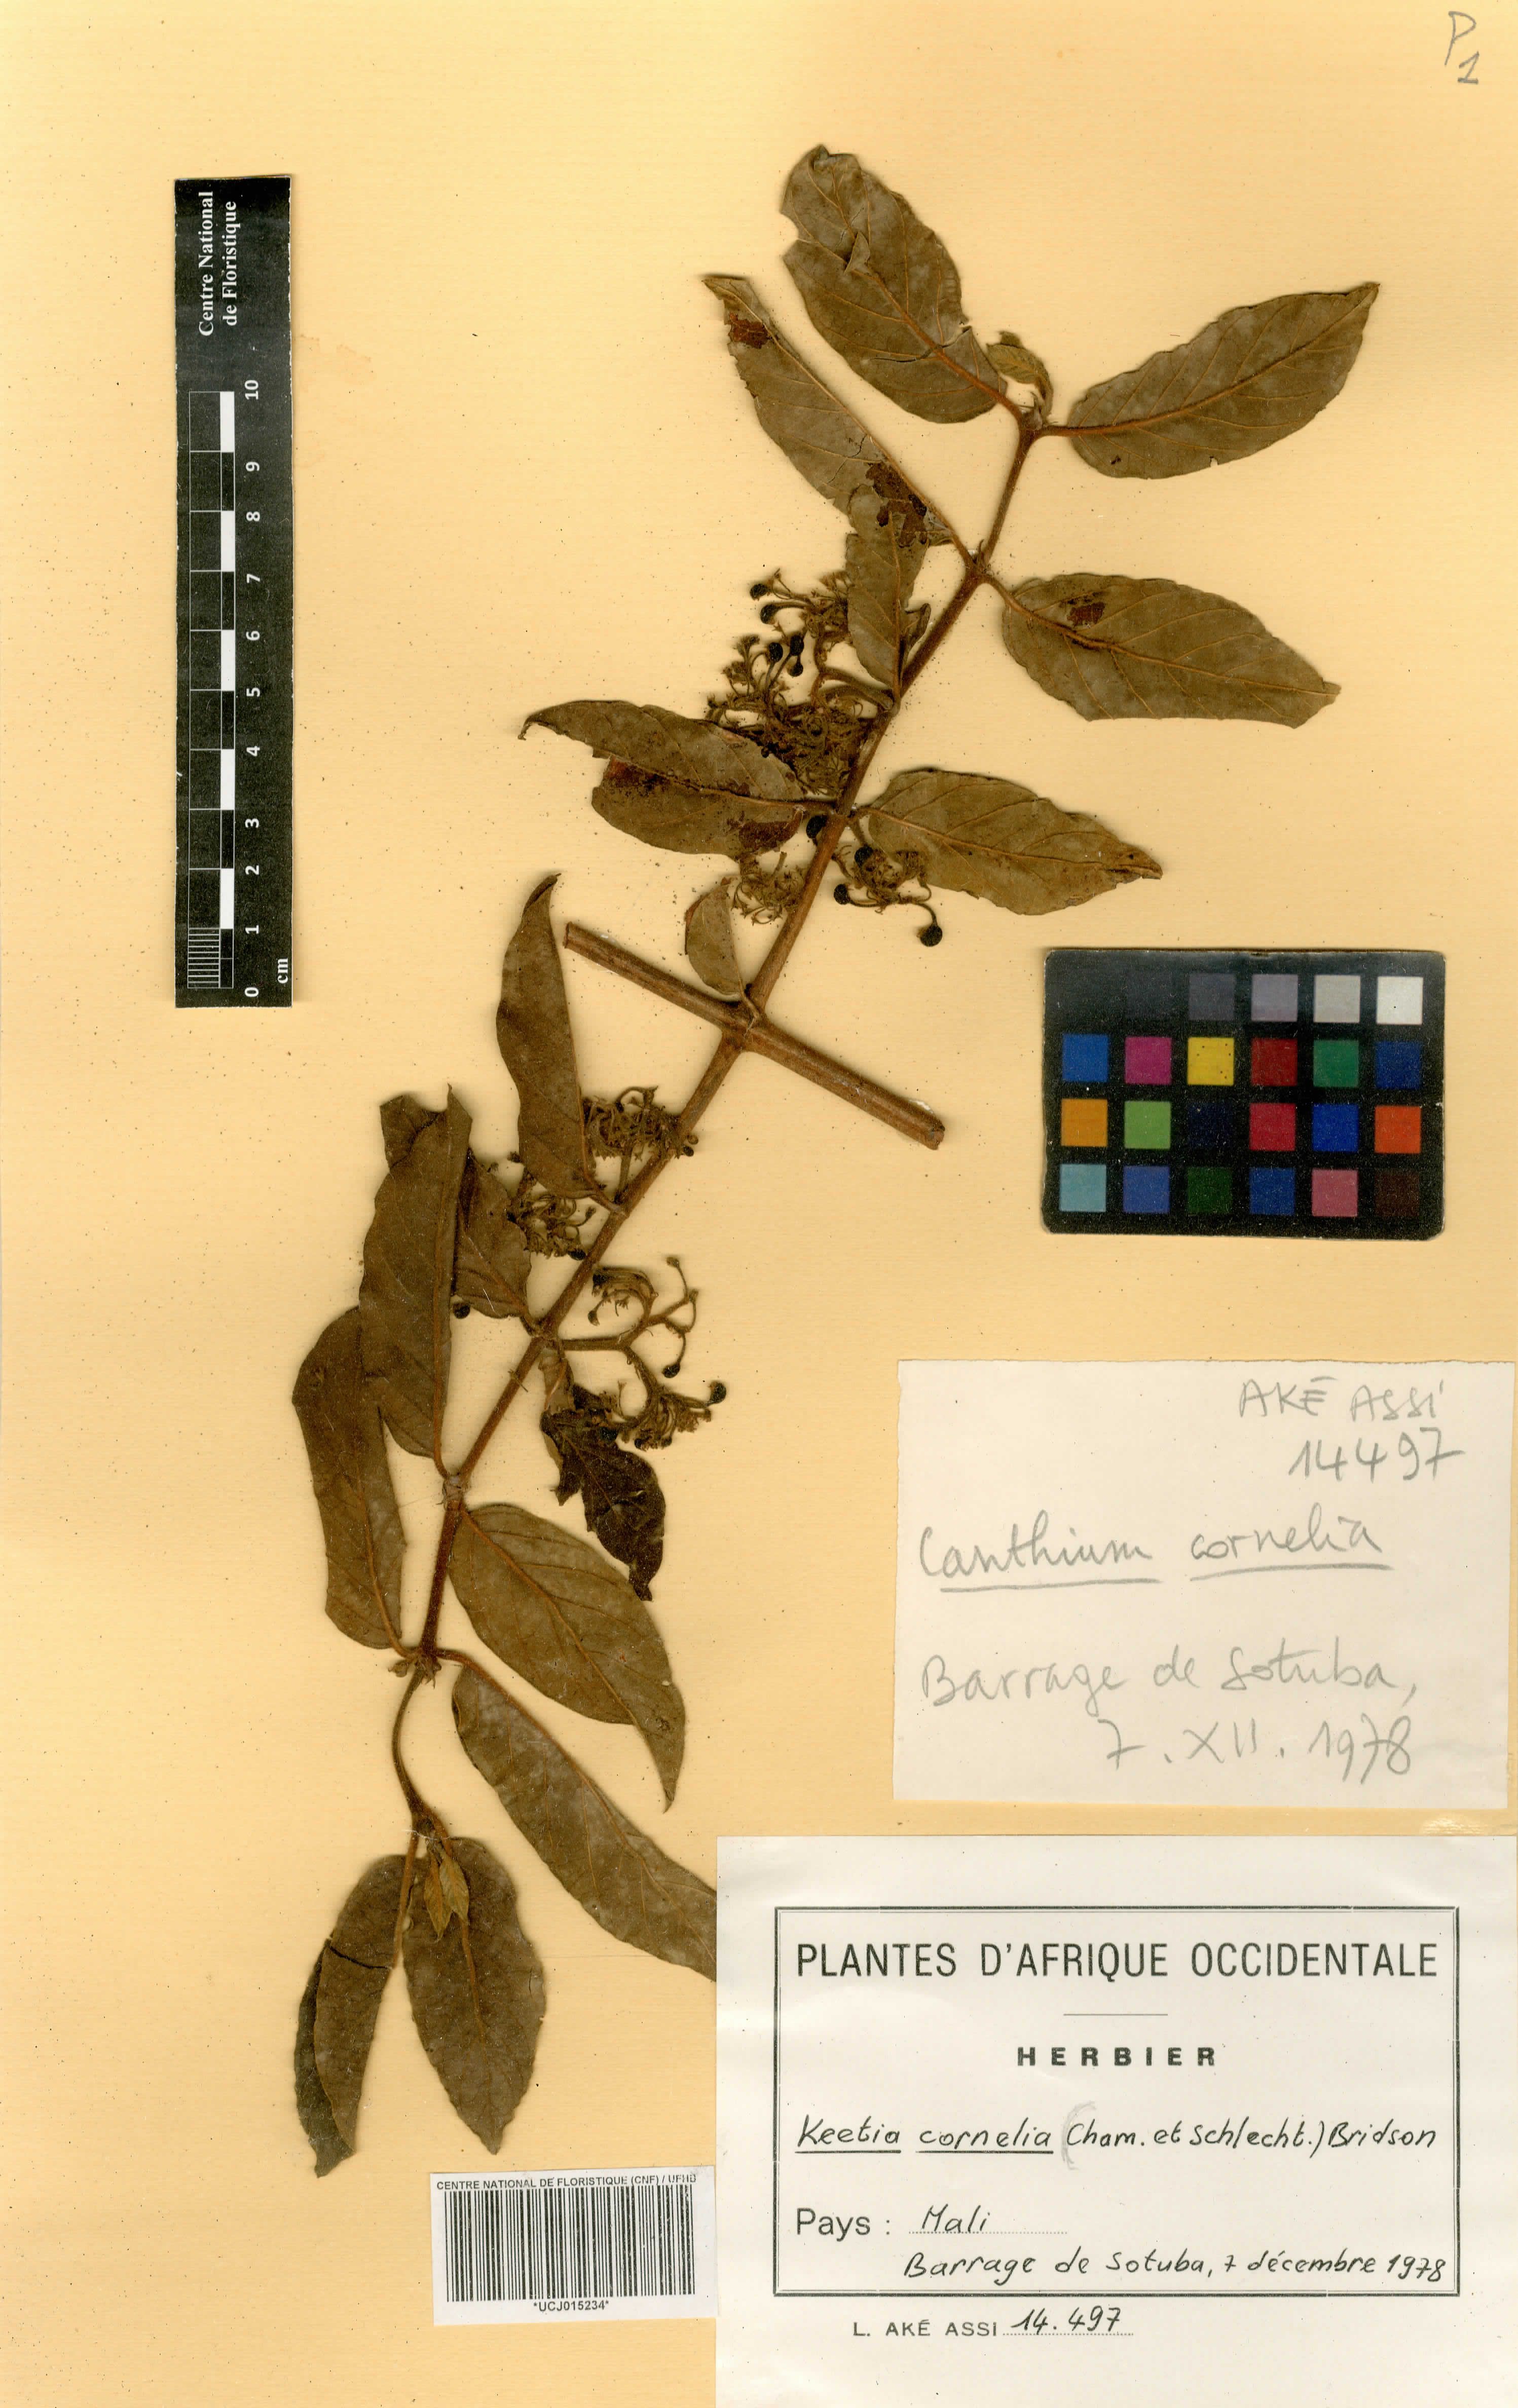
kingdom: Plantae
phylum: Tracheophyta
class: Magnoliopsida
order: Gentianales
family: Rubiaceae
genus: Keetia
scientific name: Keetia cornelia
